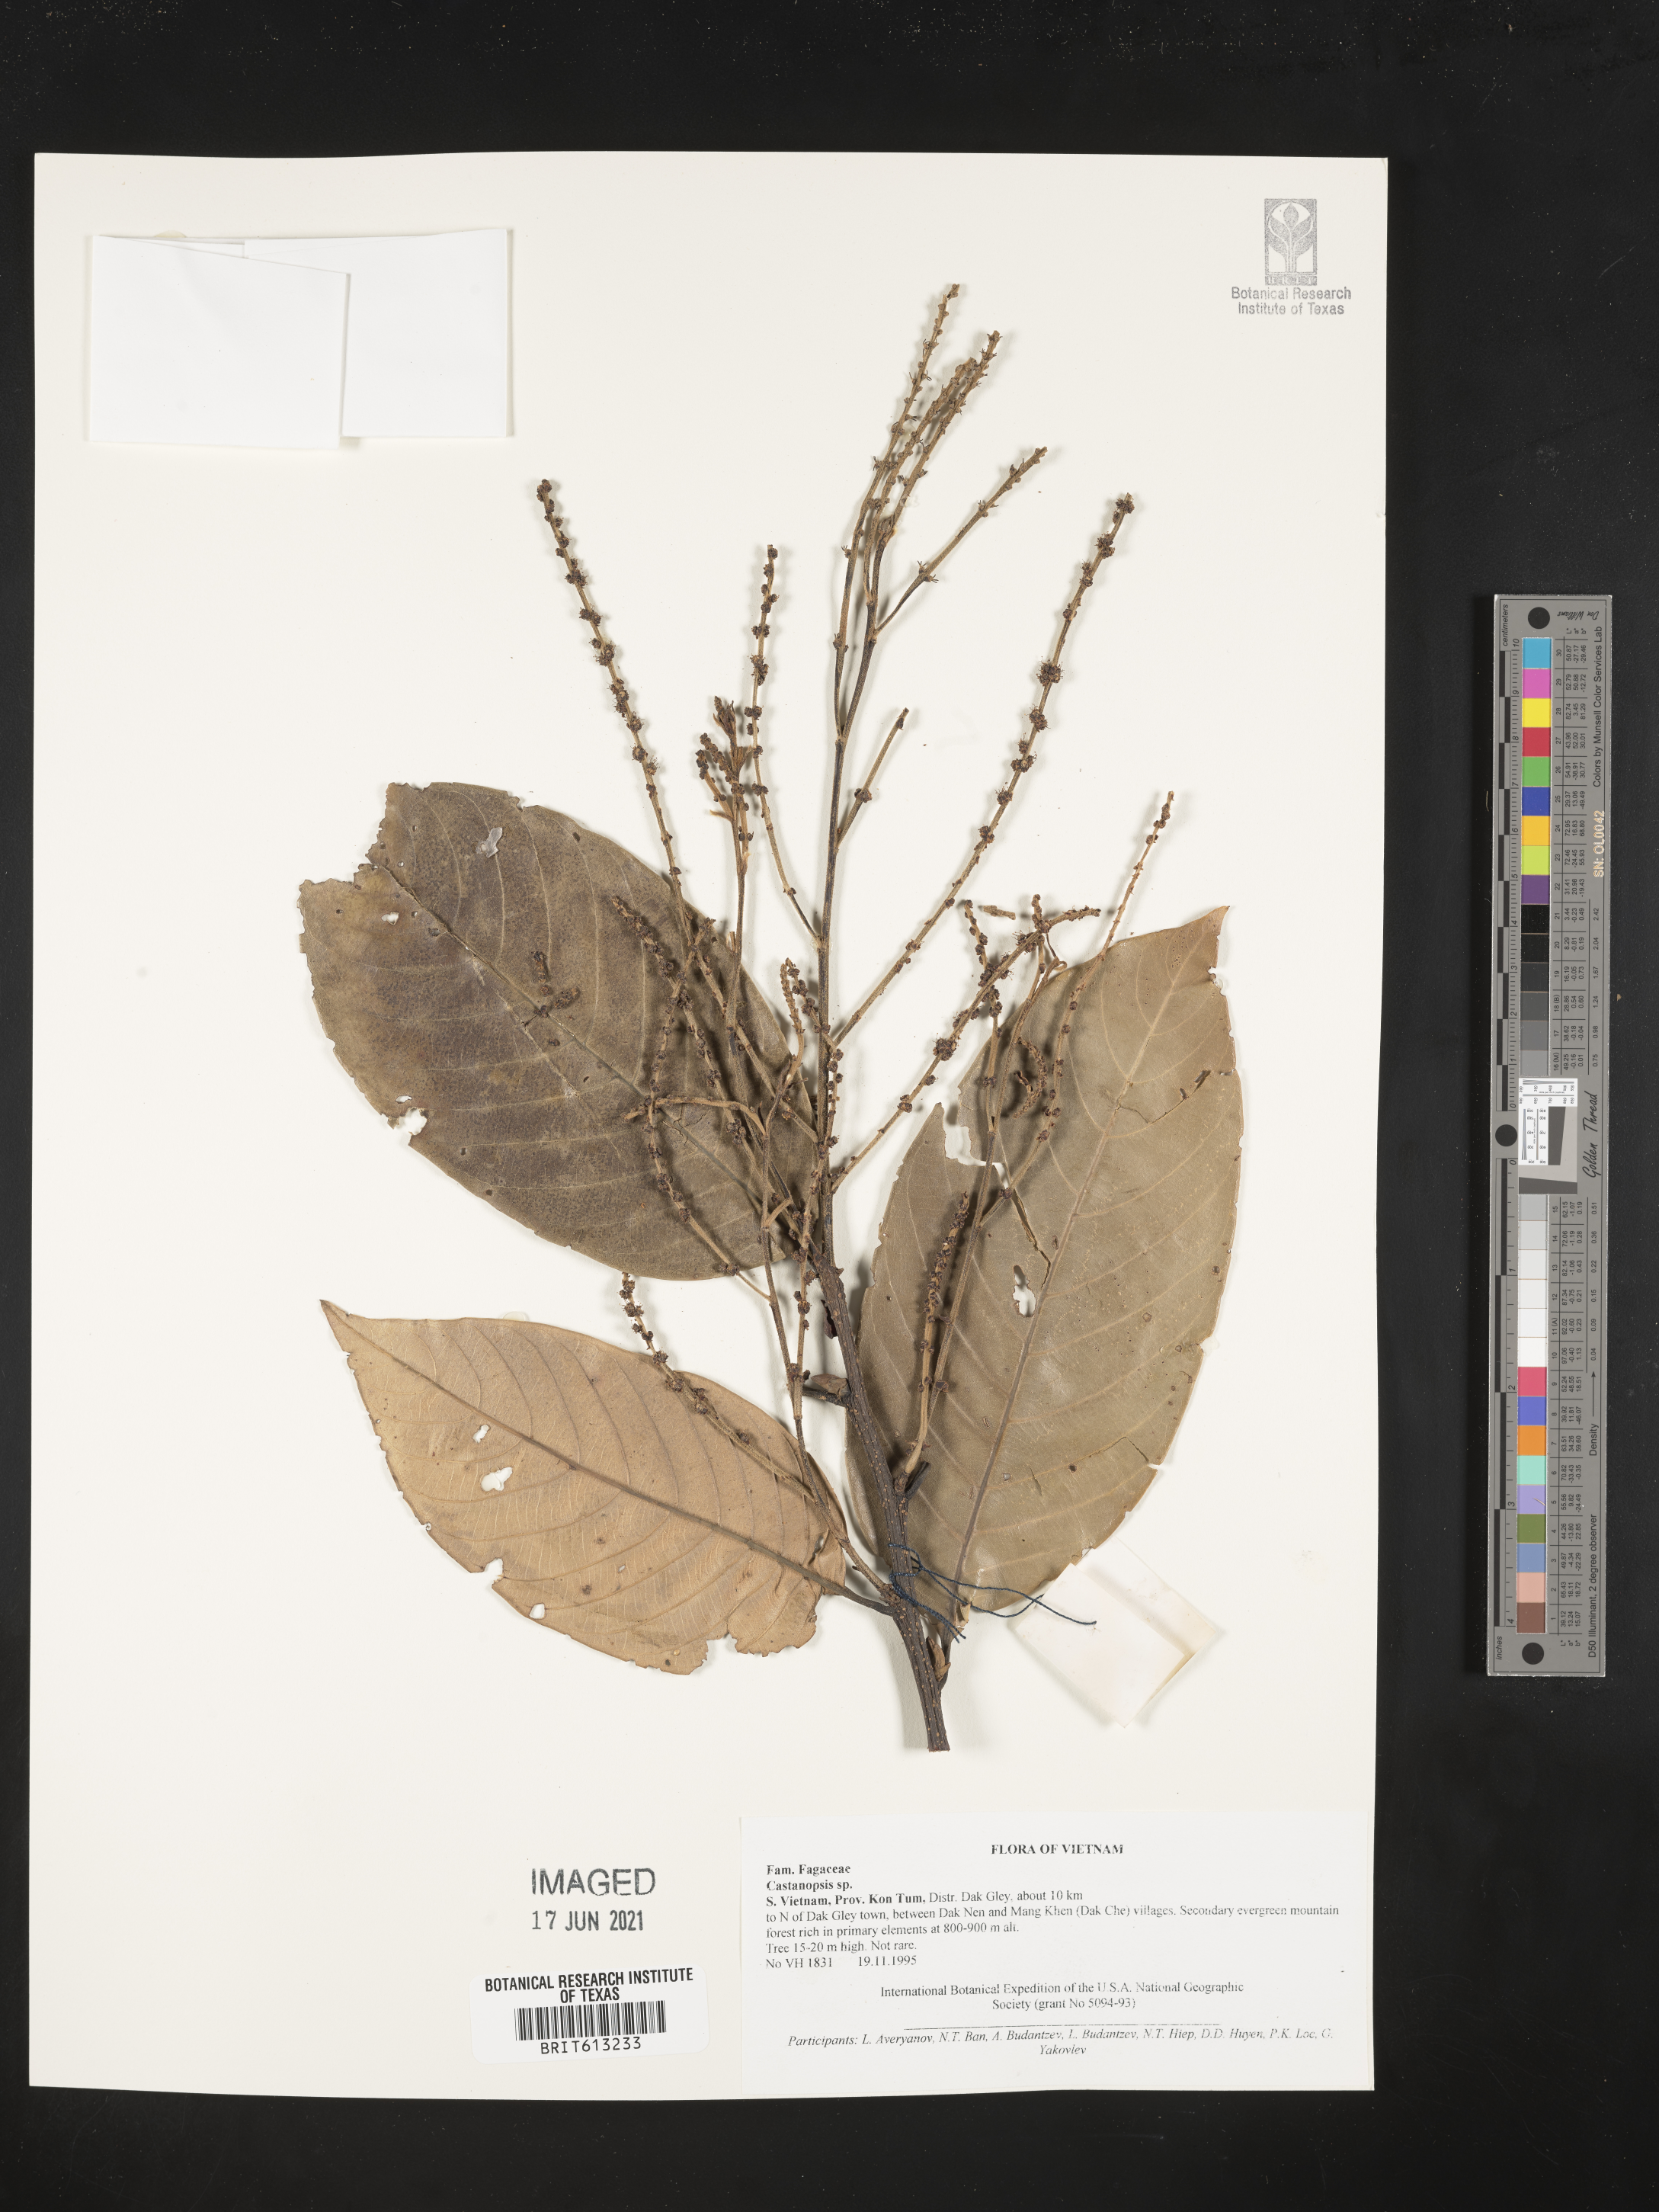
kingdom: Plantae
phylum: Tracheophyta
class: Magnoliopsida
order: Fagales
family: Fagaceae
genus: Castanopsis
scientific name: Castanopsis
